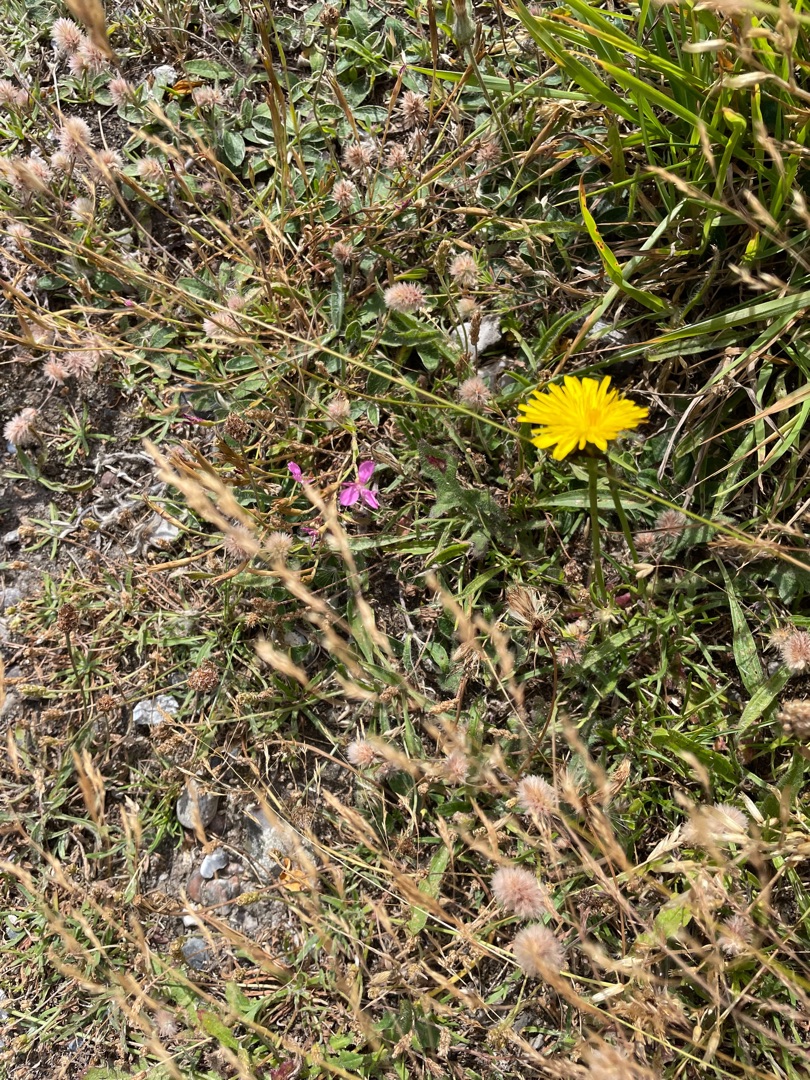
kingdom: Plantae
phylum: Tracheophyta
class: Magnoliopsida
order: Caryophyllales
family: Caryophyllaceae
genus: Dianthus
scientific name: Dianthus deltoides
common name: Bakke-nellike
